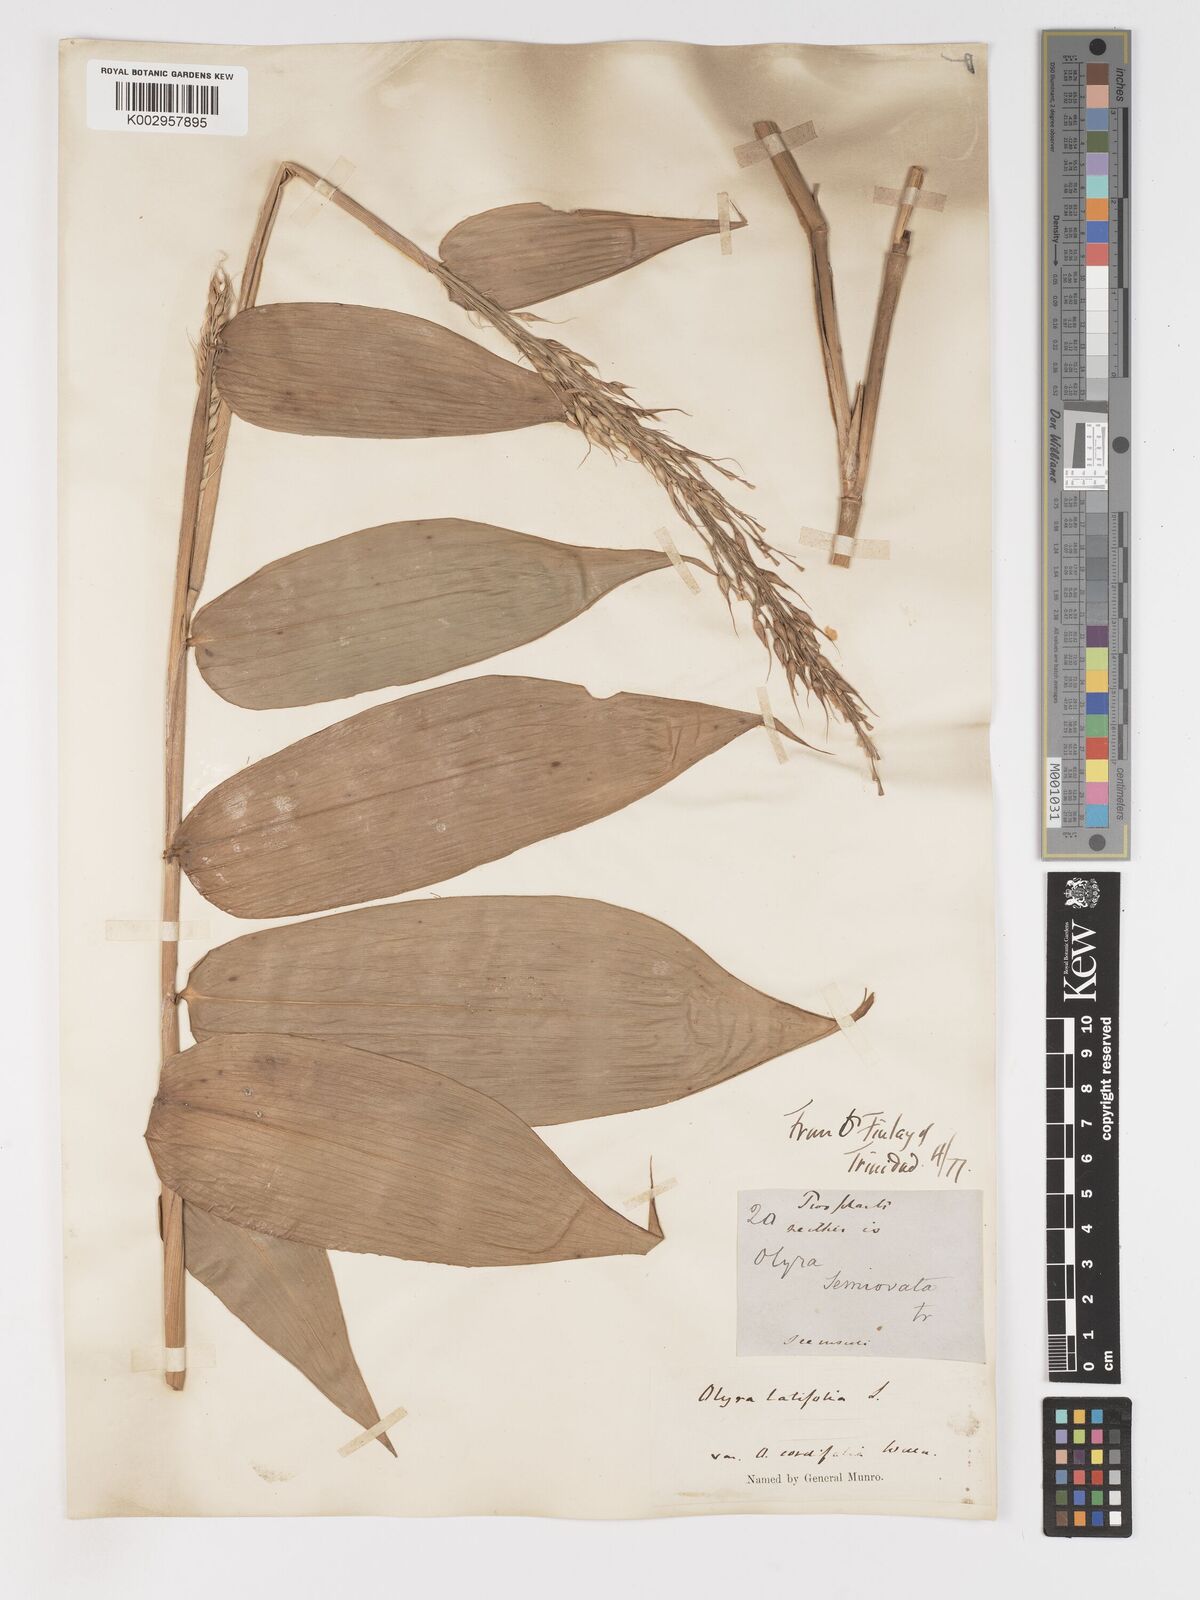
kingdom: Plantae
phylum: Tracheophyta
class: Liliopsida
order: Poales
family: Poaceae
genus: Olyra
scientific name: Olyra latifolia
